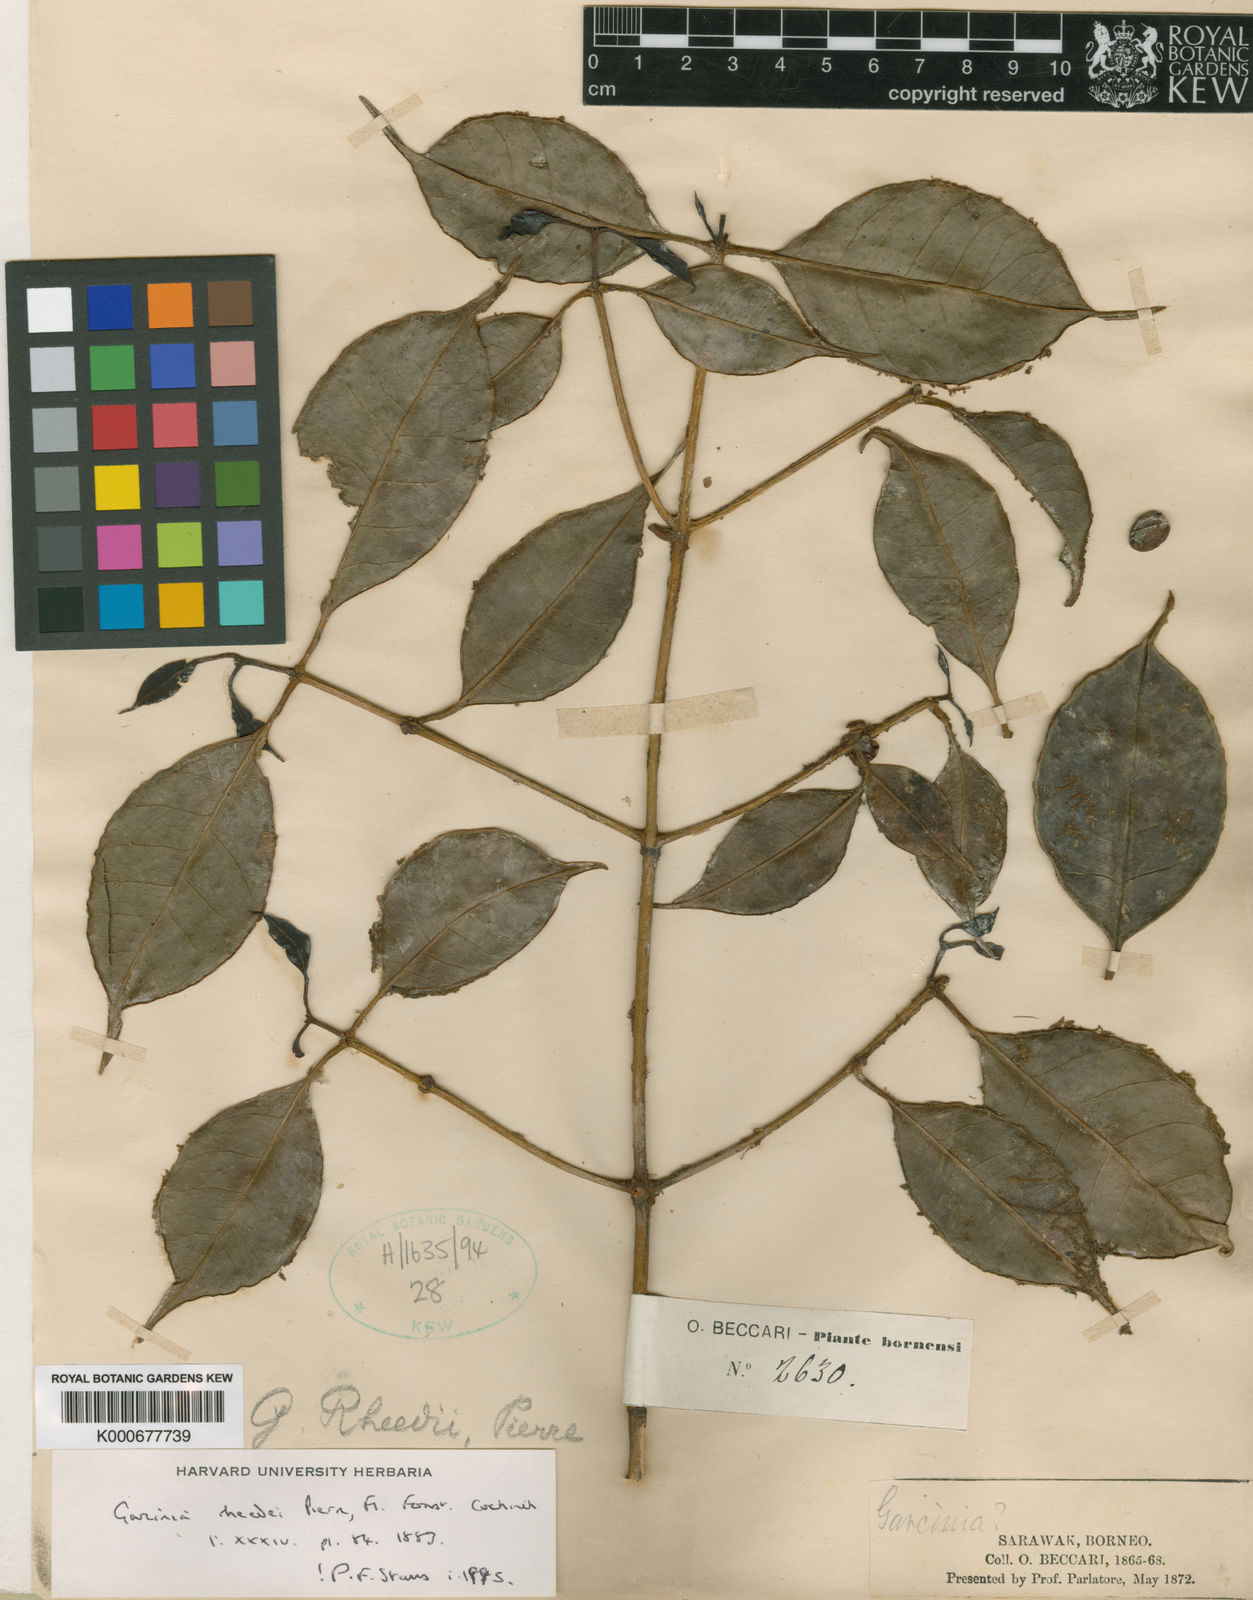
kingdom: Plantae
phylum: Tracheophyta
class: Magnoliopsida
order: Malpighiales
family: Clusiaceae
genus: Garcinia
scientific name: Garcinia rheedei
